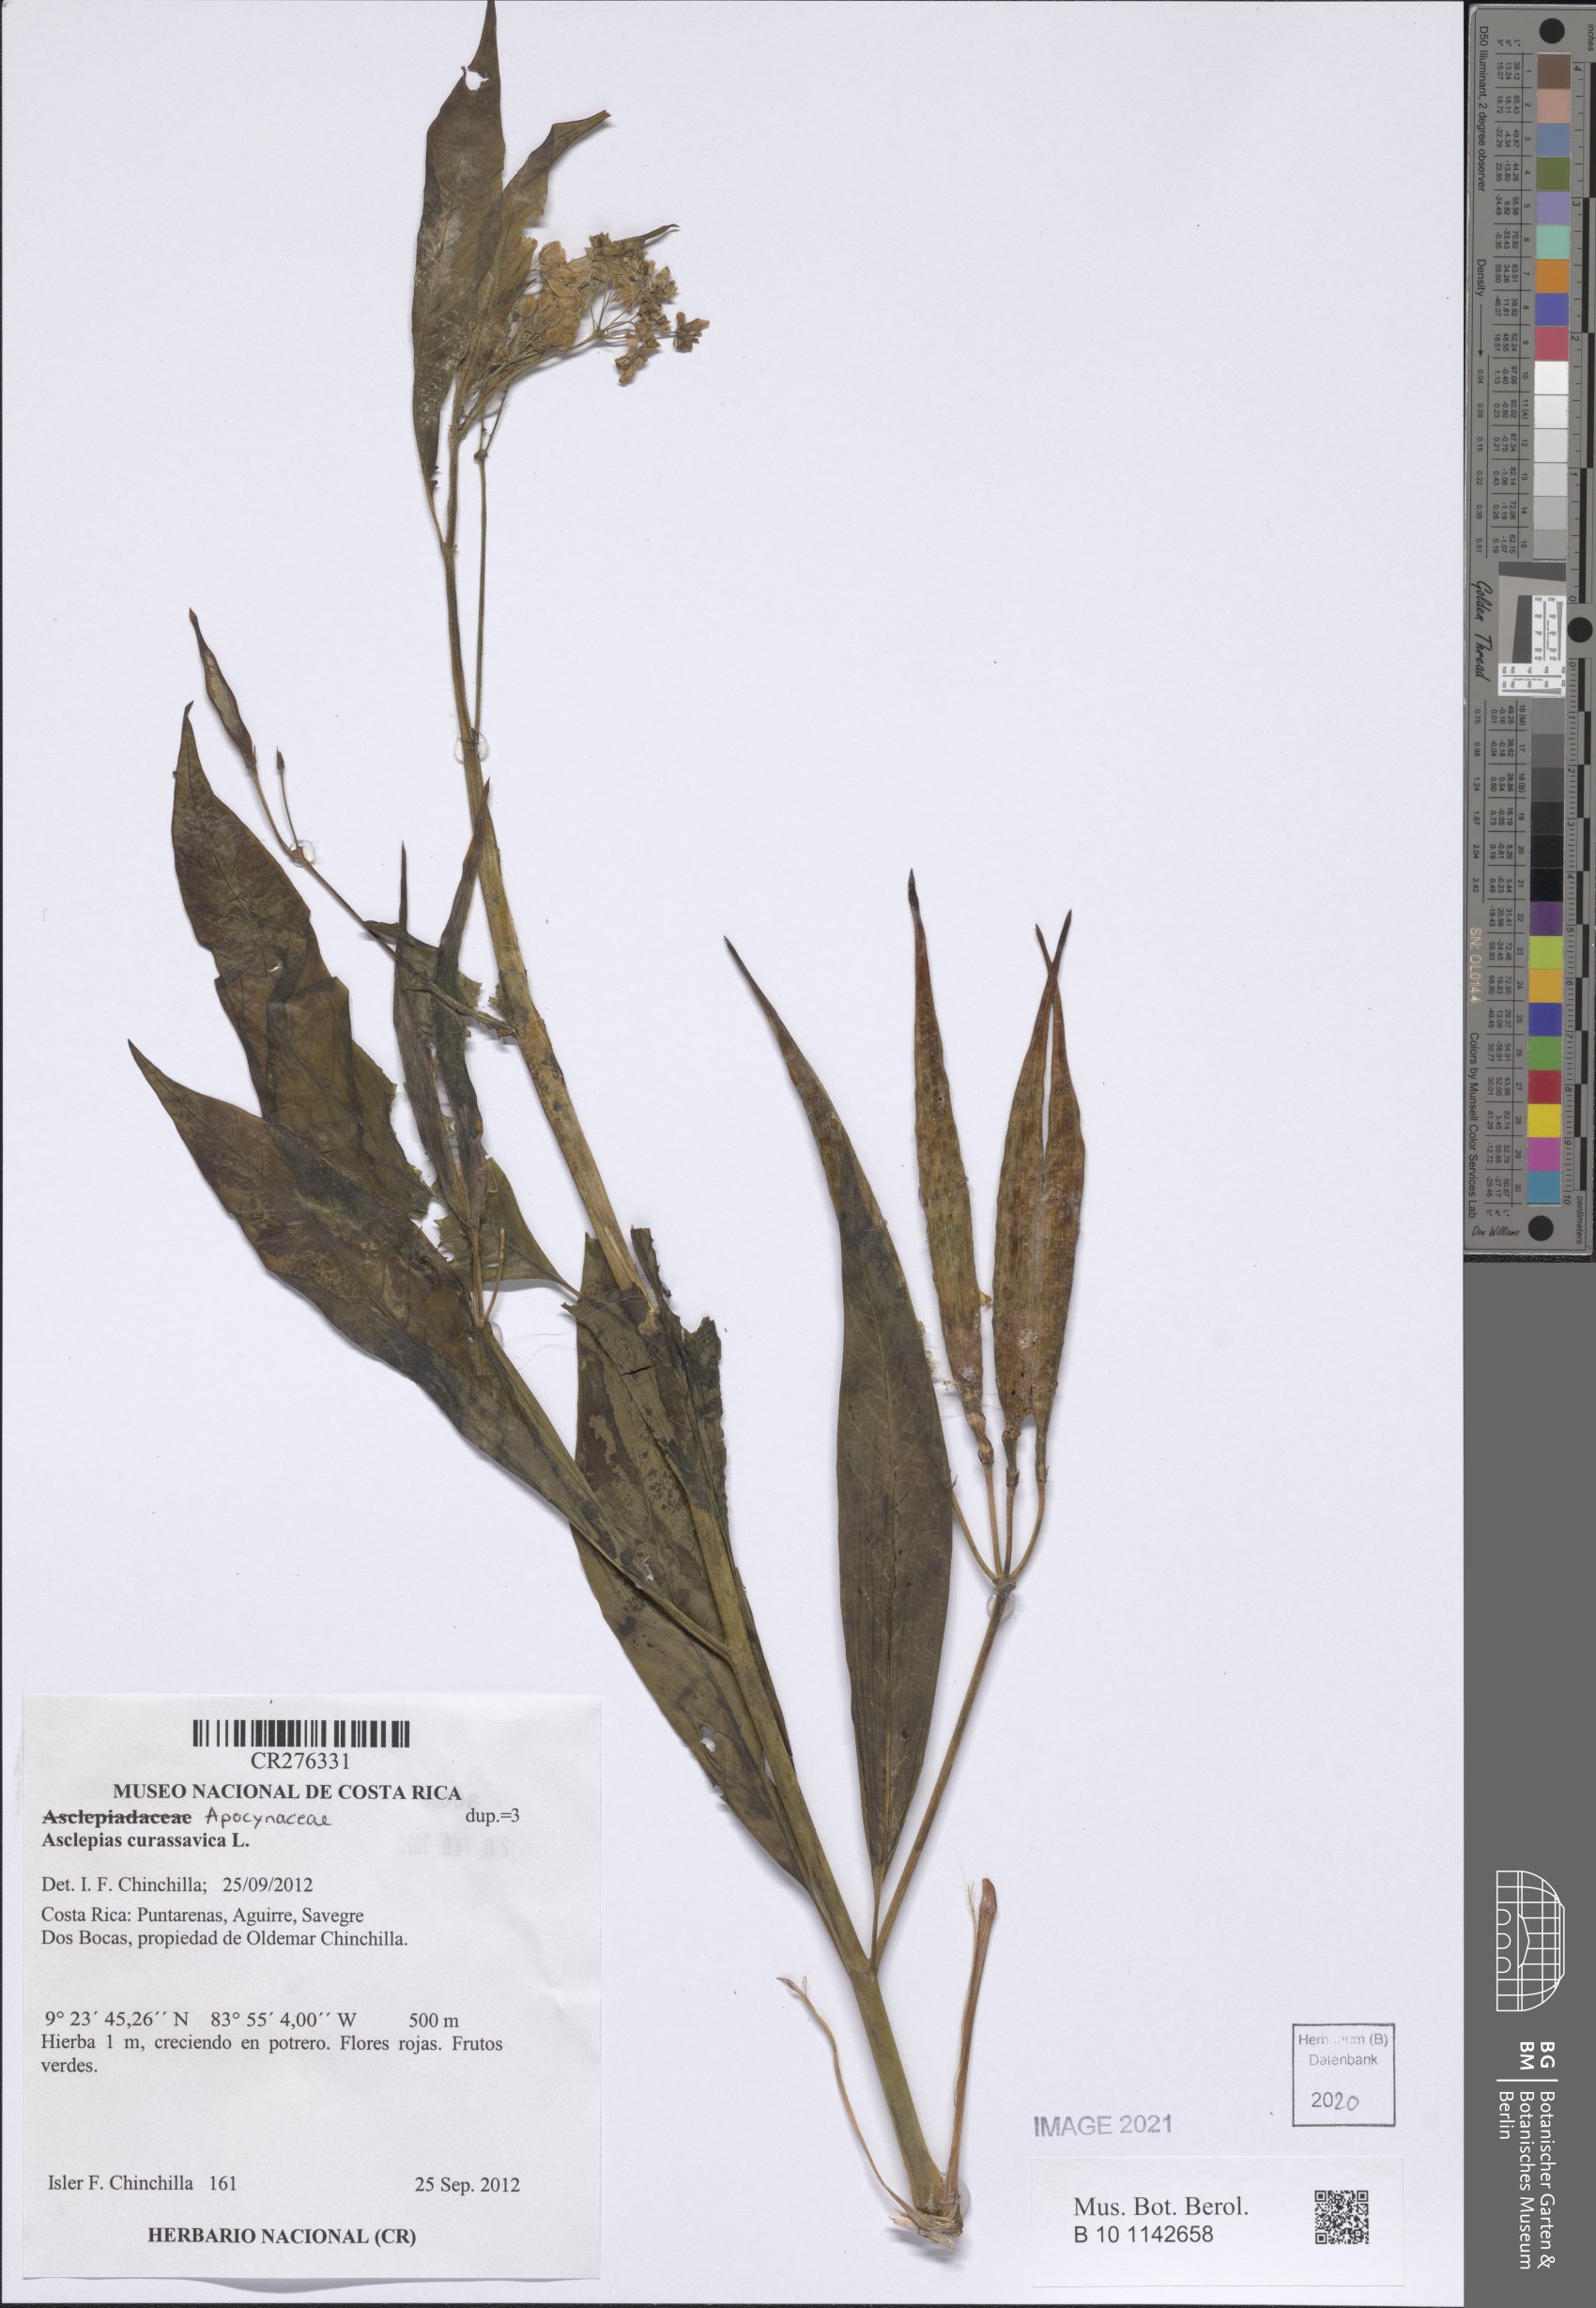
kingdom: Plantae
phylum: Tracheophyta
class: Magnoliopsida
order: Gentianales
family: Apocynaceae
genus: Asclepias
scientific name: Asclepias curassavica
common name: Bloodflower
